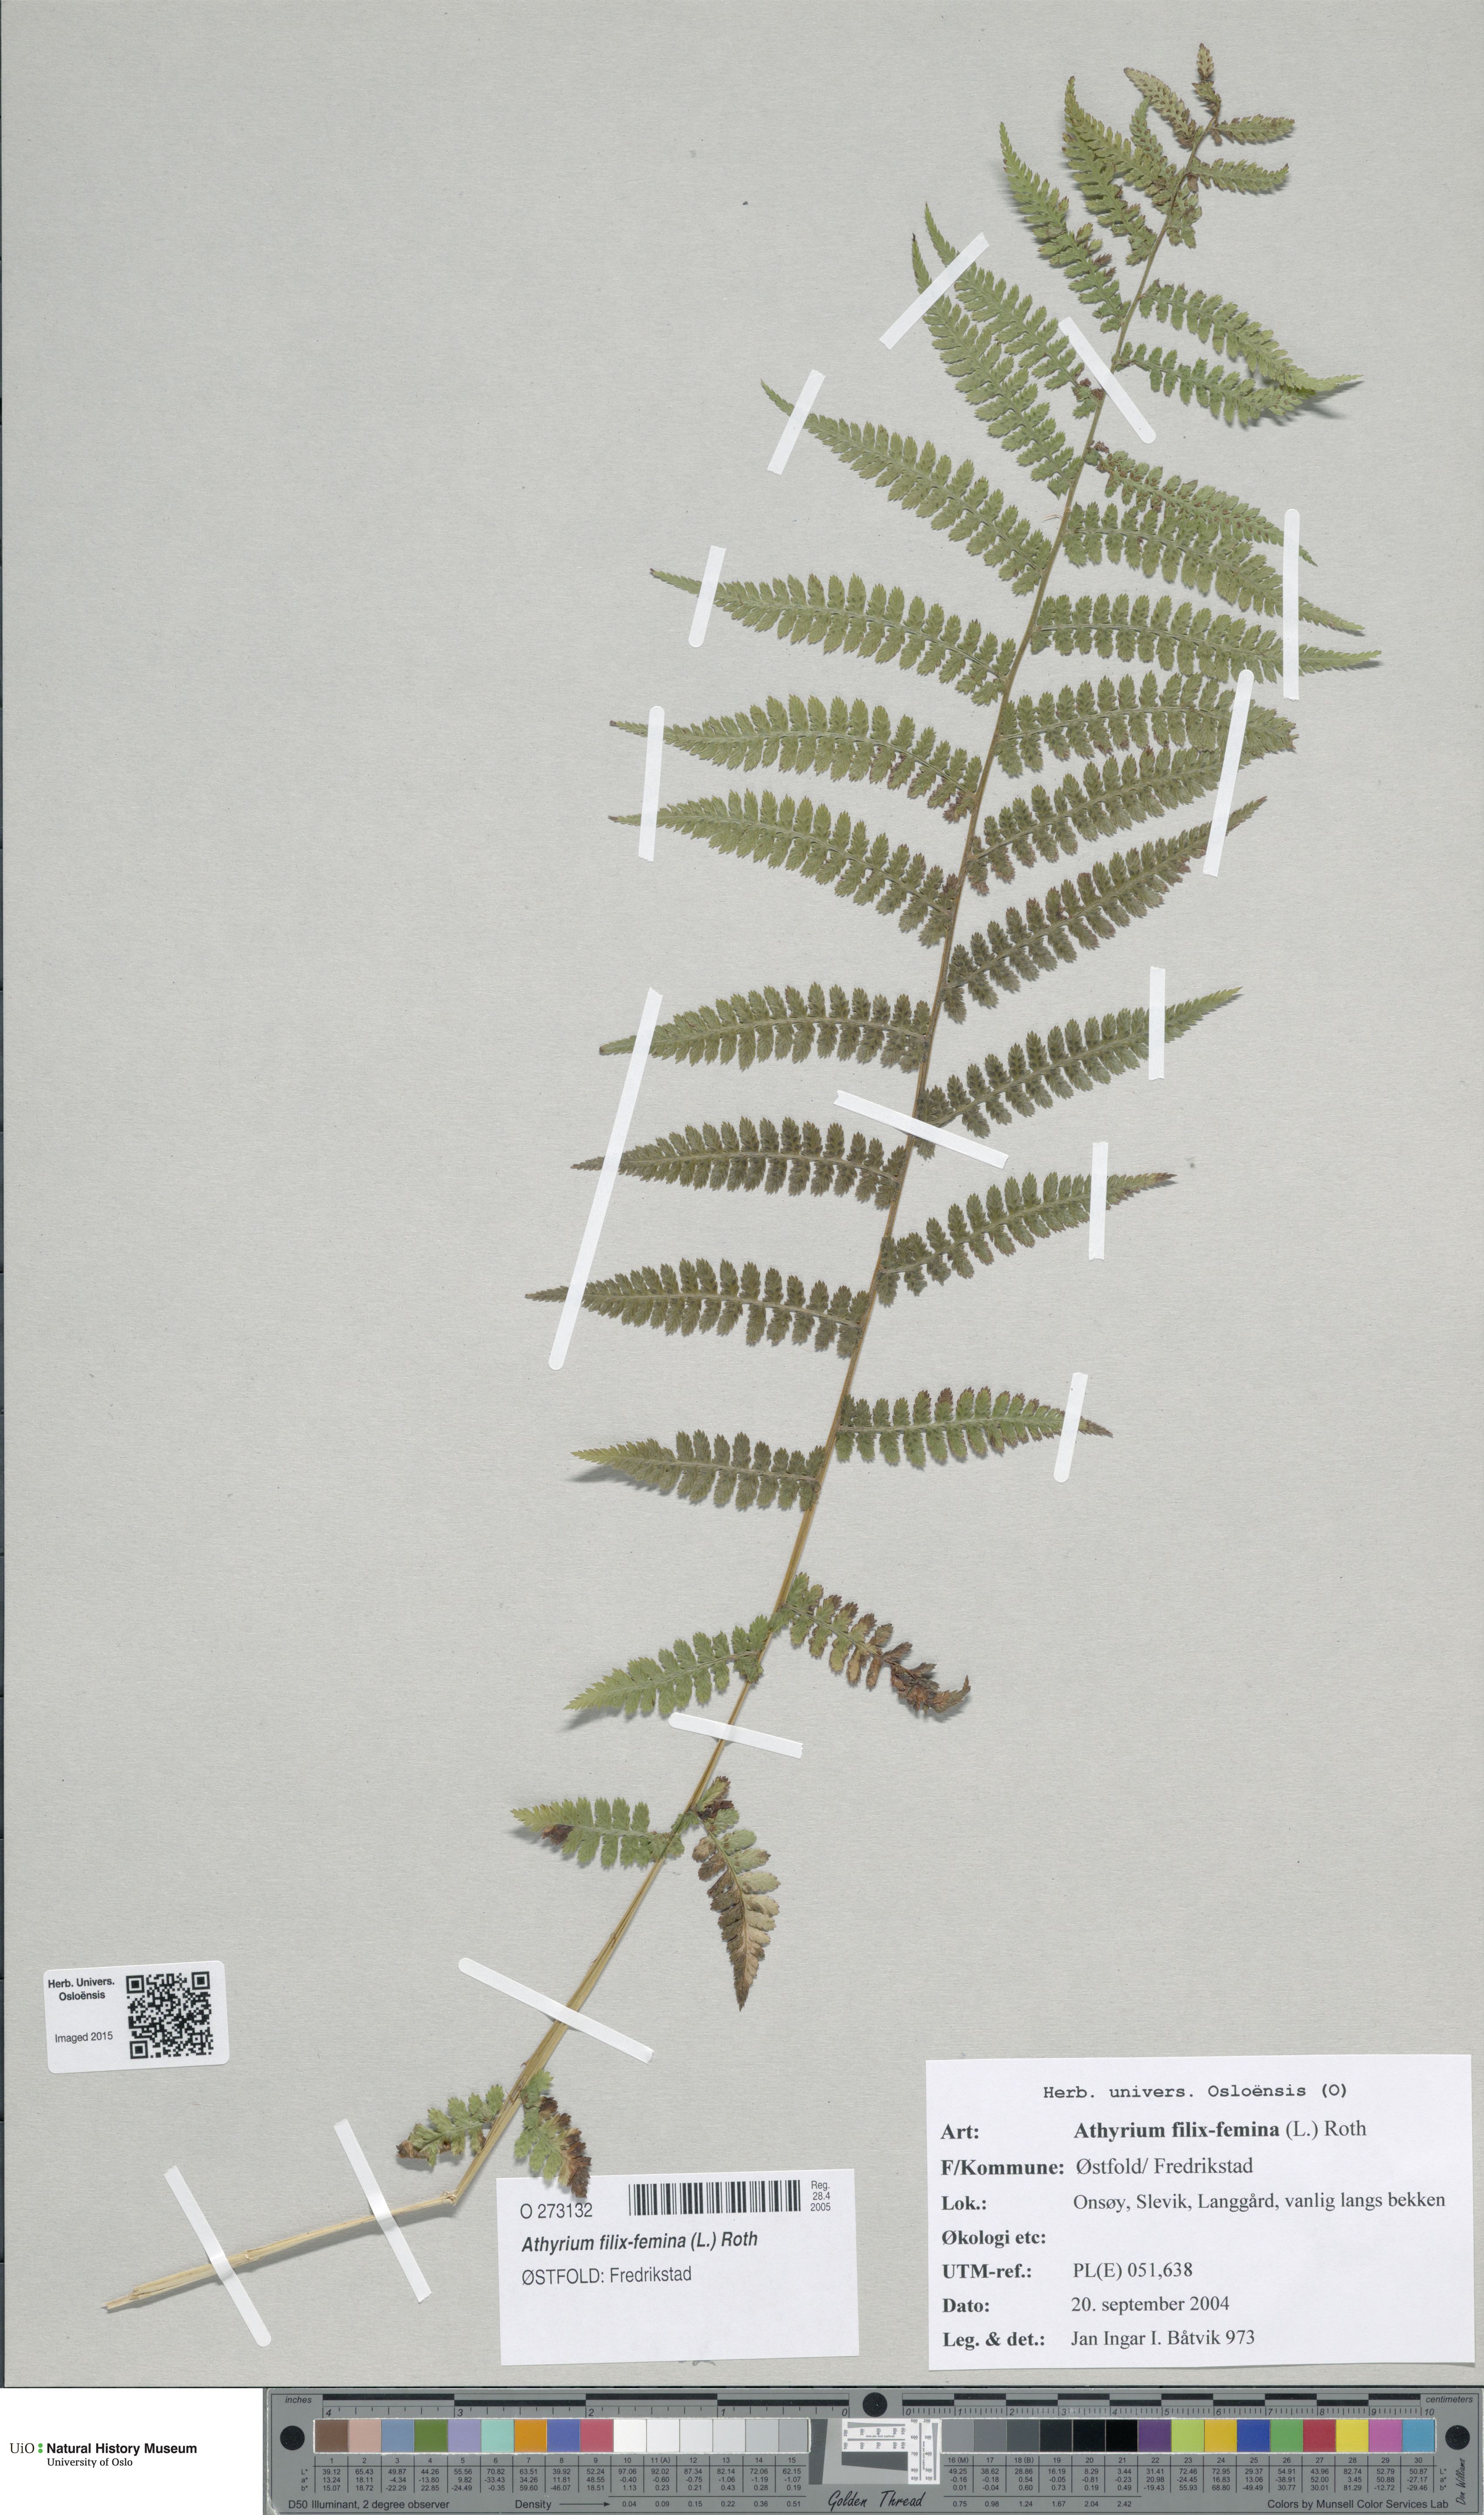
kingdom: Plantae
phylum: Tracheophyta
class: Polypodiopsida
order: Polypodiales
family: Athyriaceae
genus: Athyrium
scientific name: Athyrium filix-femina
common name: Lady fern
